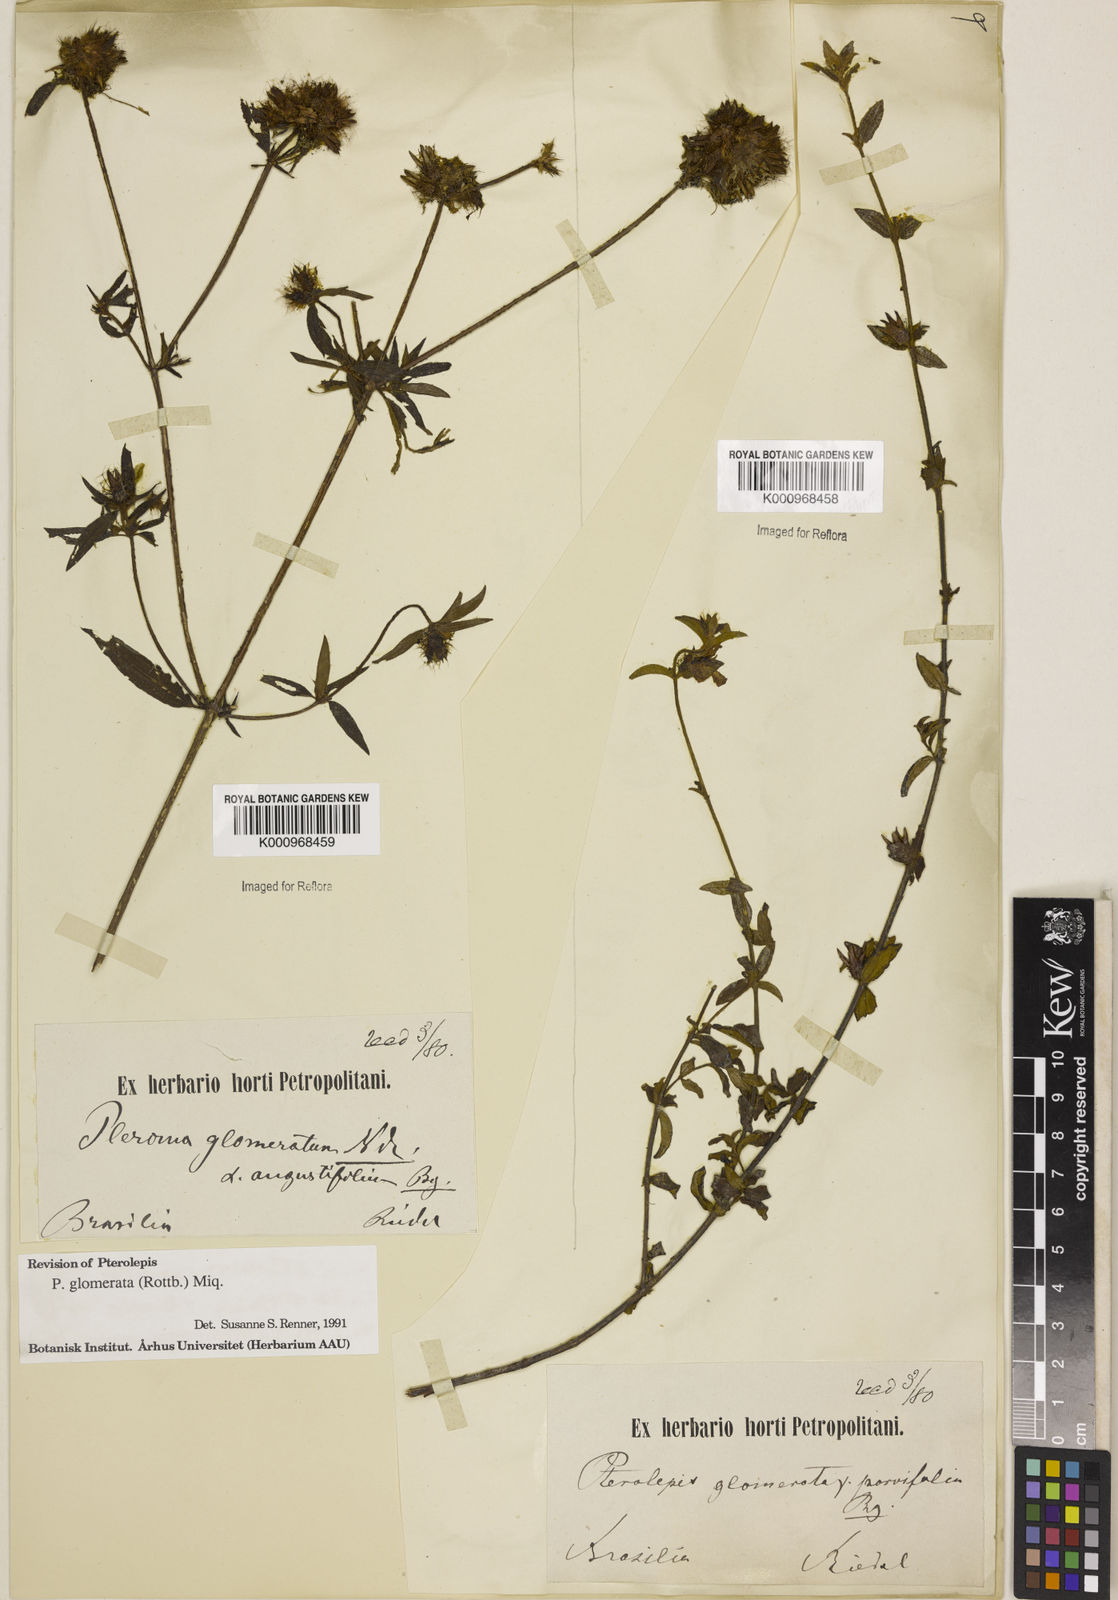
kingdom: Plantae
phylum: Tracheophyta
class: Magnoliopsida
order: Myrtales
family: Melastomataceae
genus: Pterolepis
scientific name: Pterolepis glomerata
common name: False meadowbeauty
